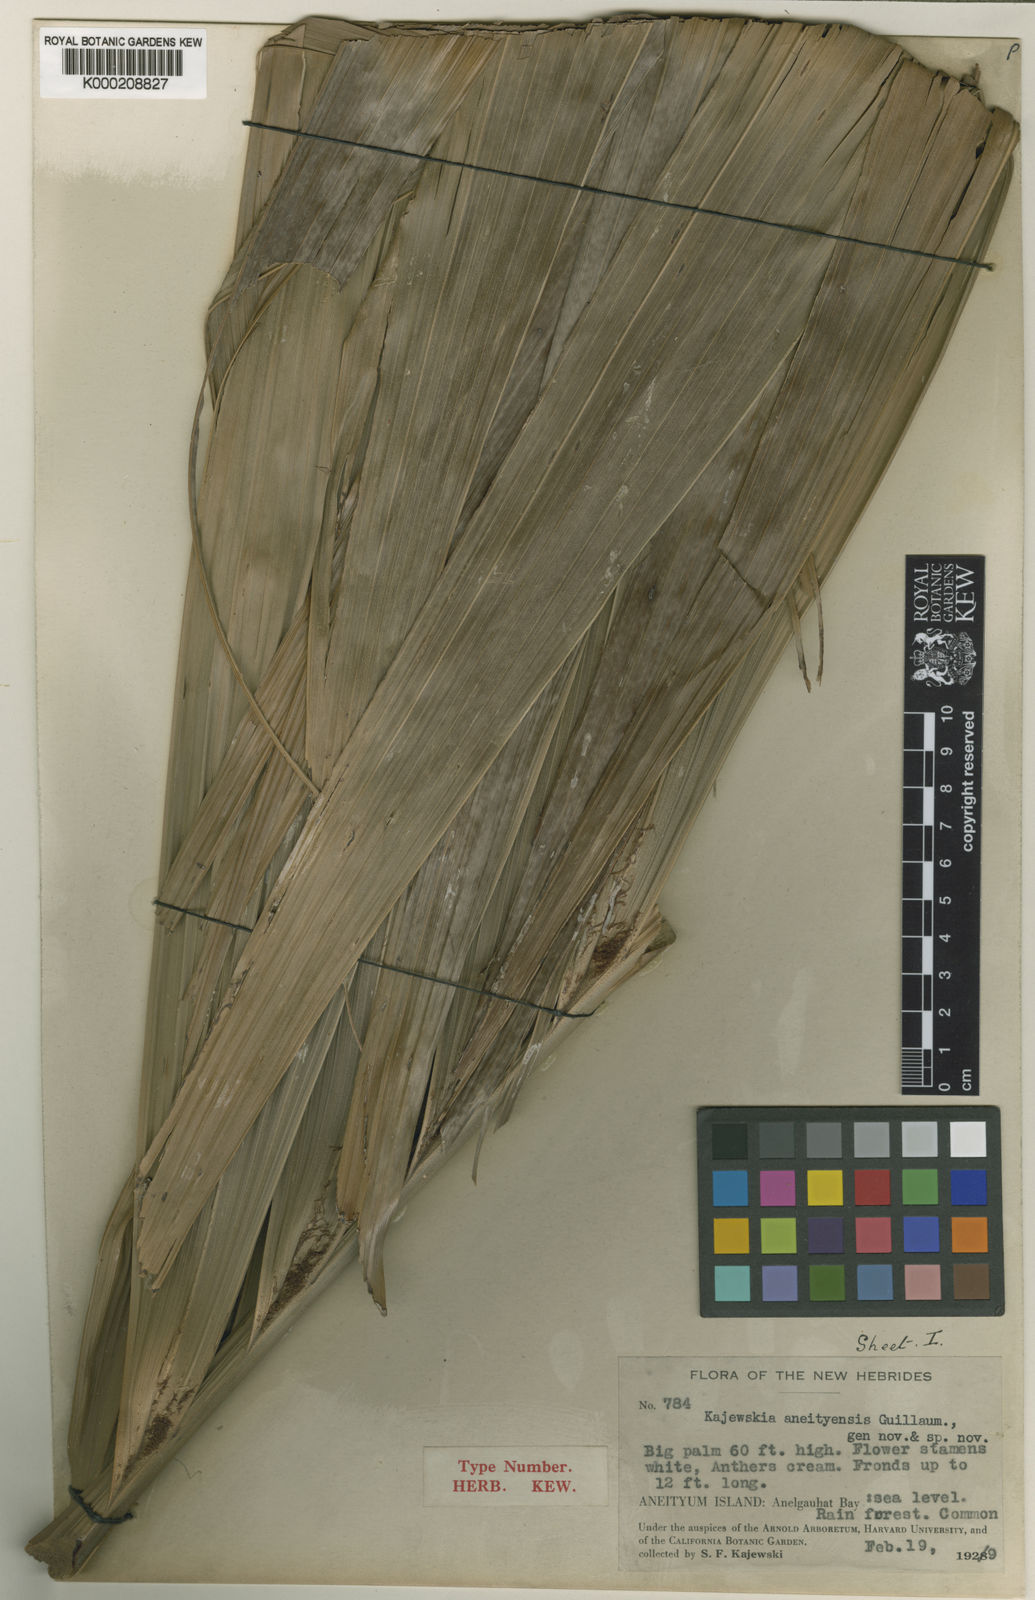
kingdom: Plantae
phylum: Tracheophyta
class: Liliopsida
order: Arecales
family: Arecaceae
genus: Veitchia
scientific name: Veitchia spiralis
